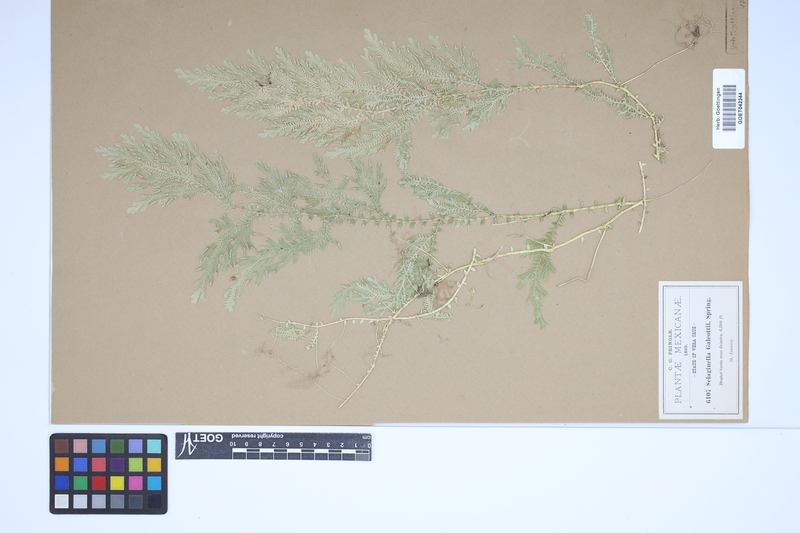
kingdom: Plantae
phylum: Tracheophyta
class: Lycopodiopsida
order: Selaginellales
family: Selaginellaceae
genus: Selaginella
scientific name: Selaginella stellata
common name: Starry spikemoss
